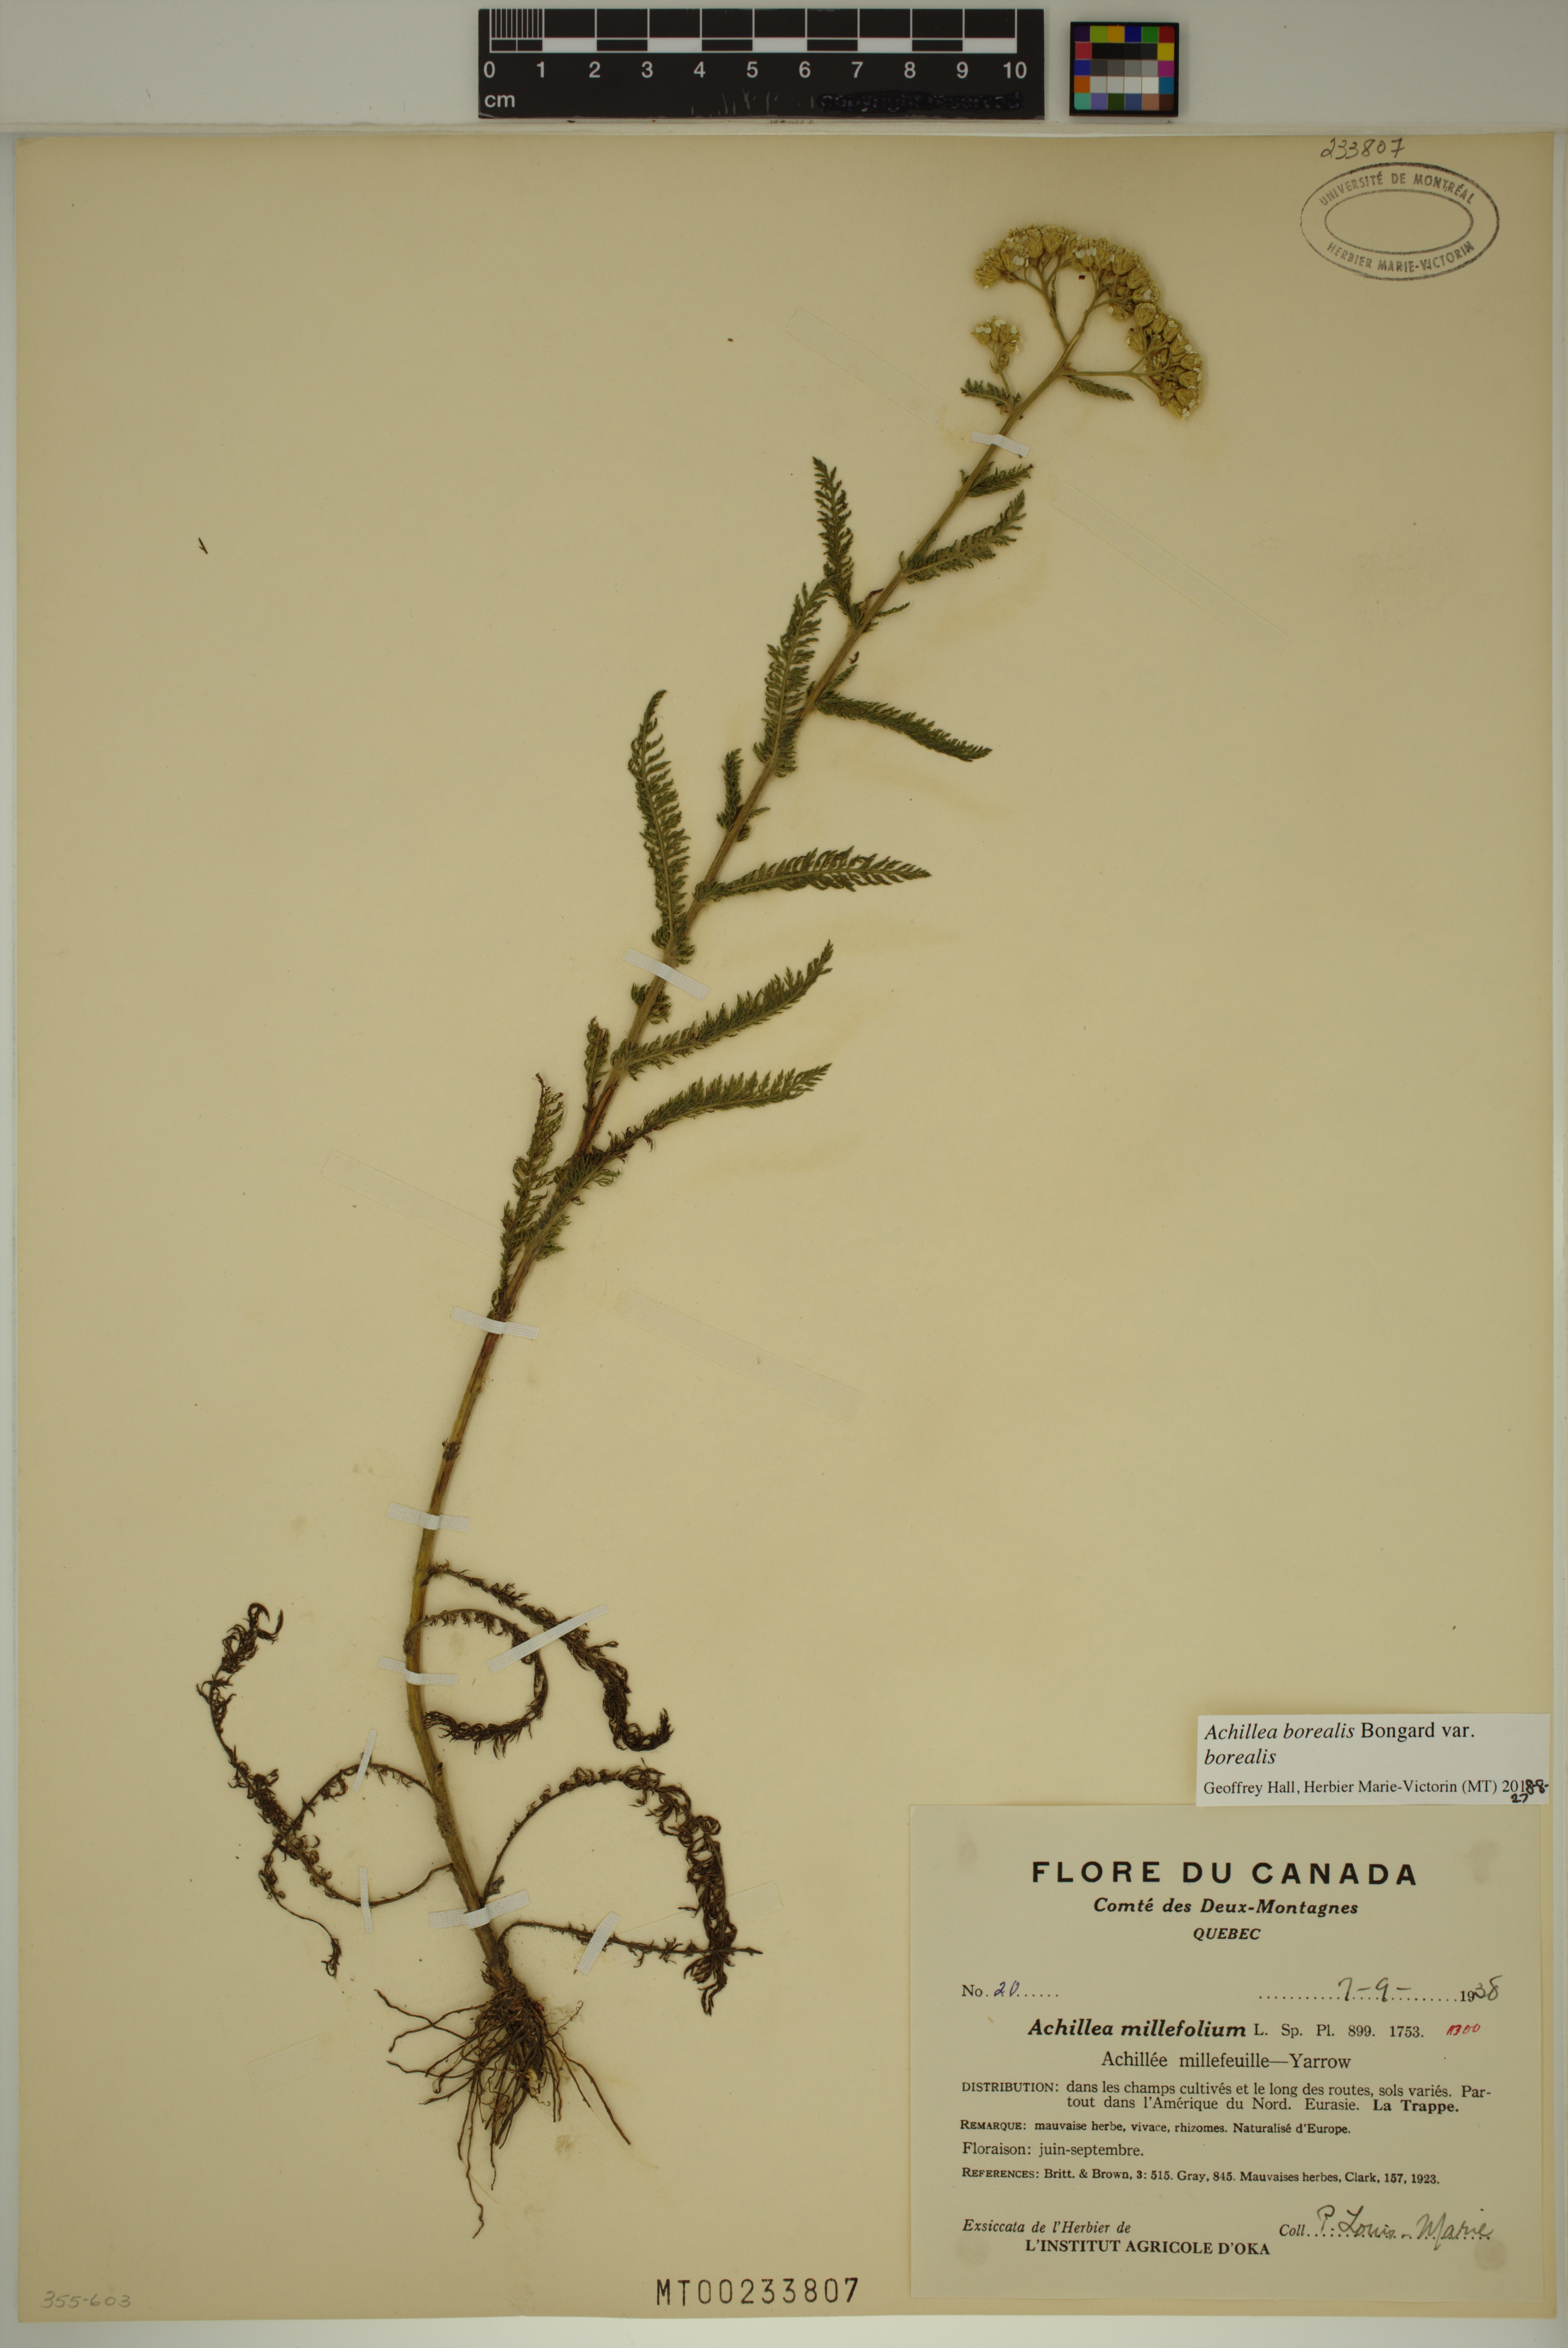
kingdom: Plantae
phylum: Tracheophyta
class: Magnoliopsida
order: Asterales
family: Asteraceae
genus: Achillea
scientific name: Achillea millefolium
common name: Yarrow
